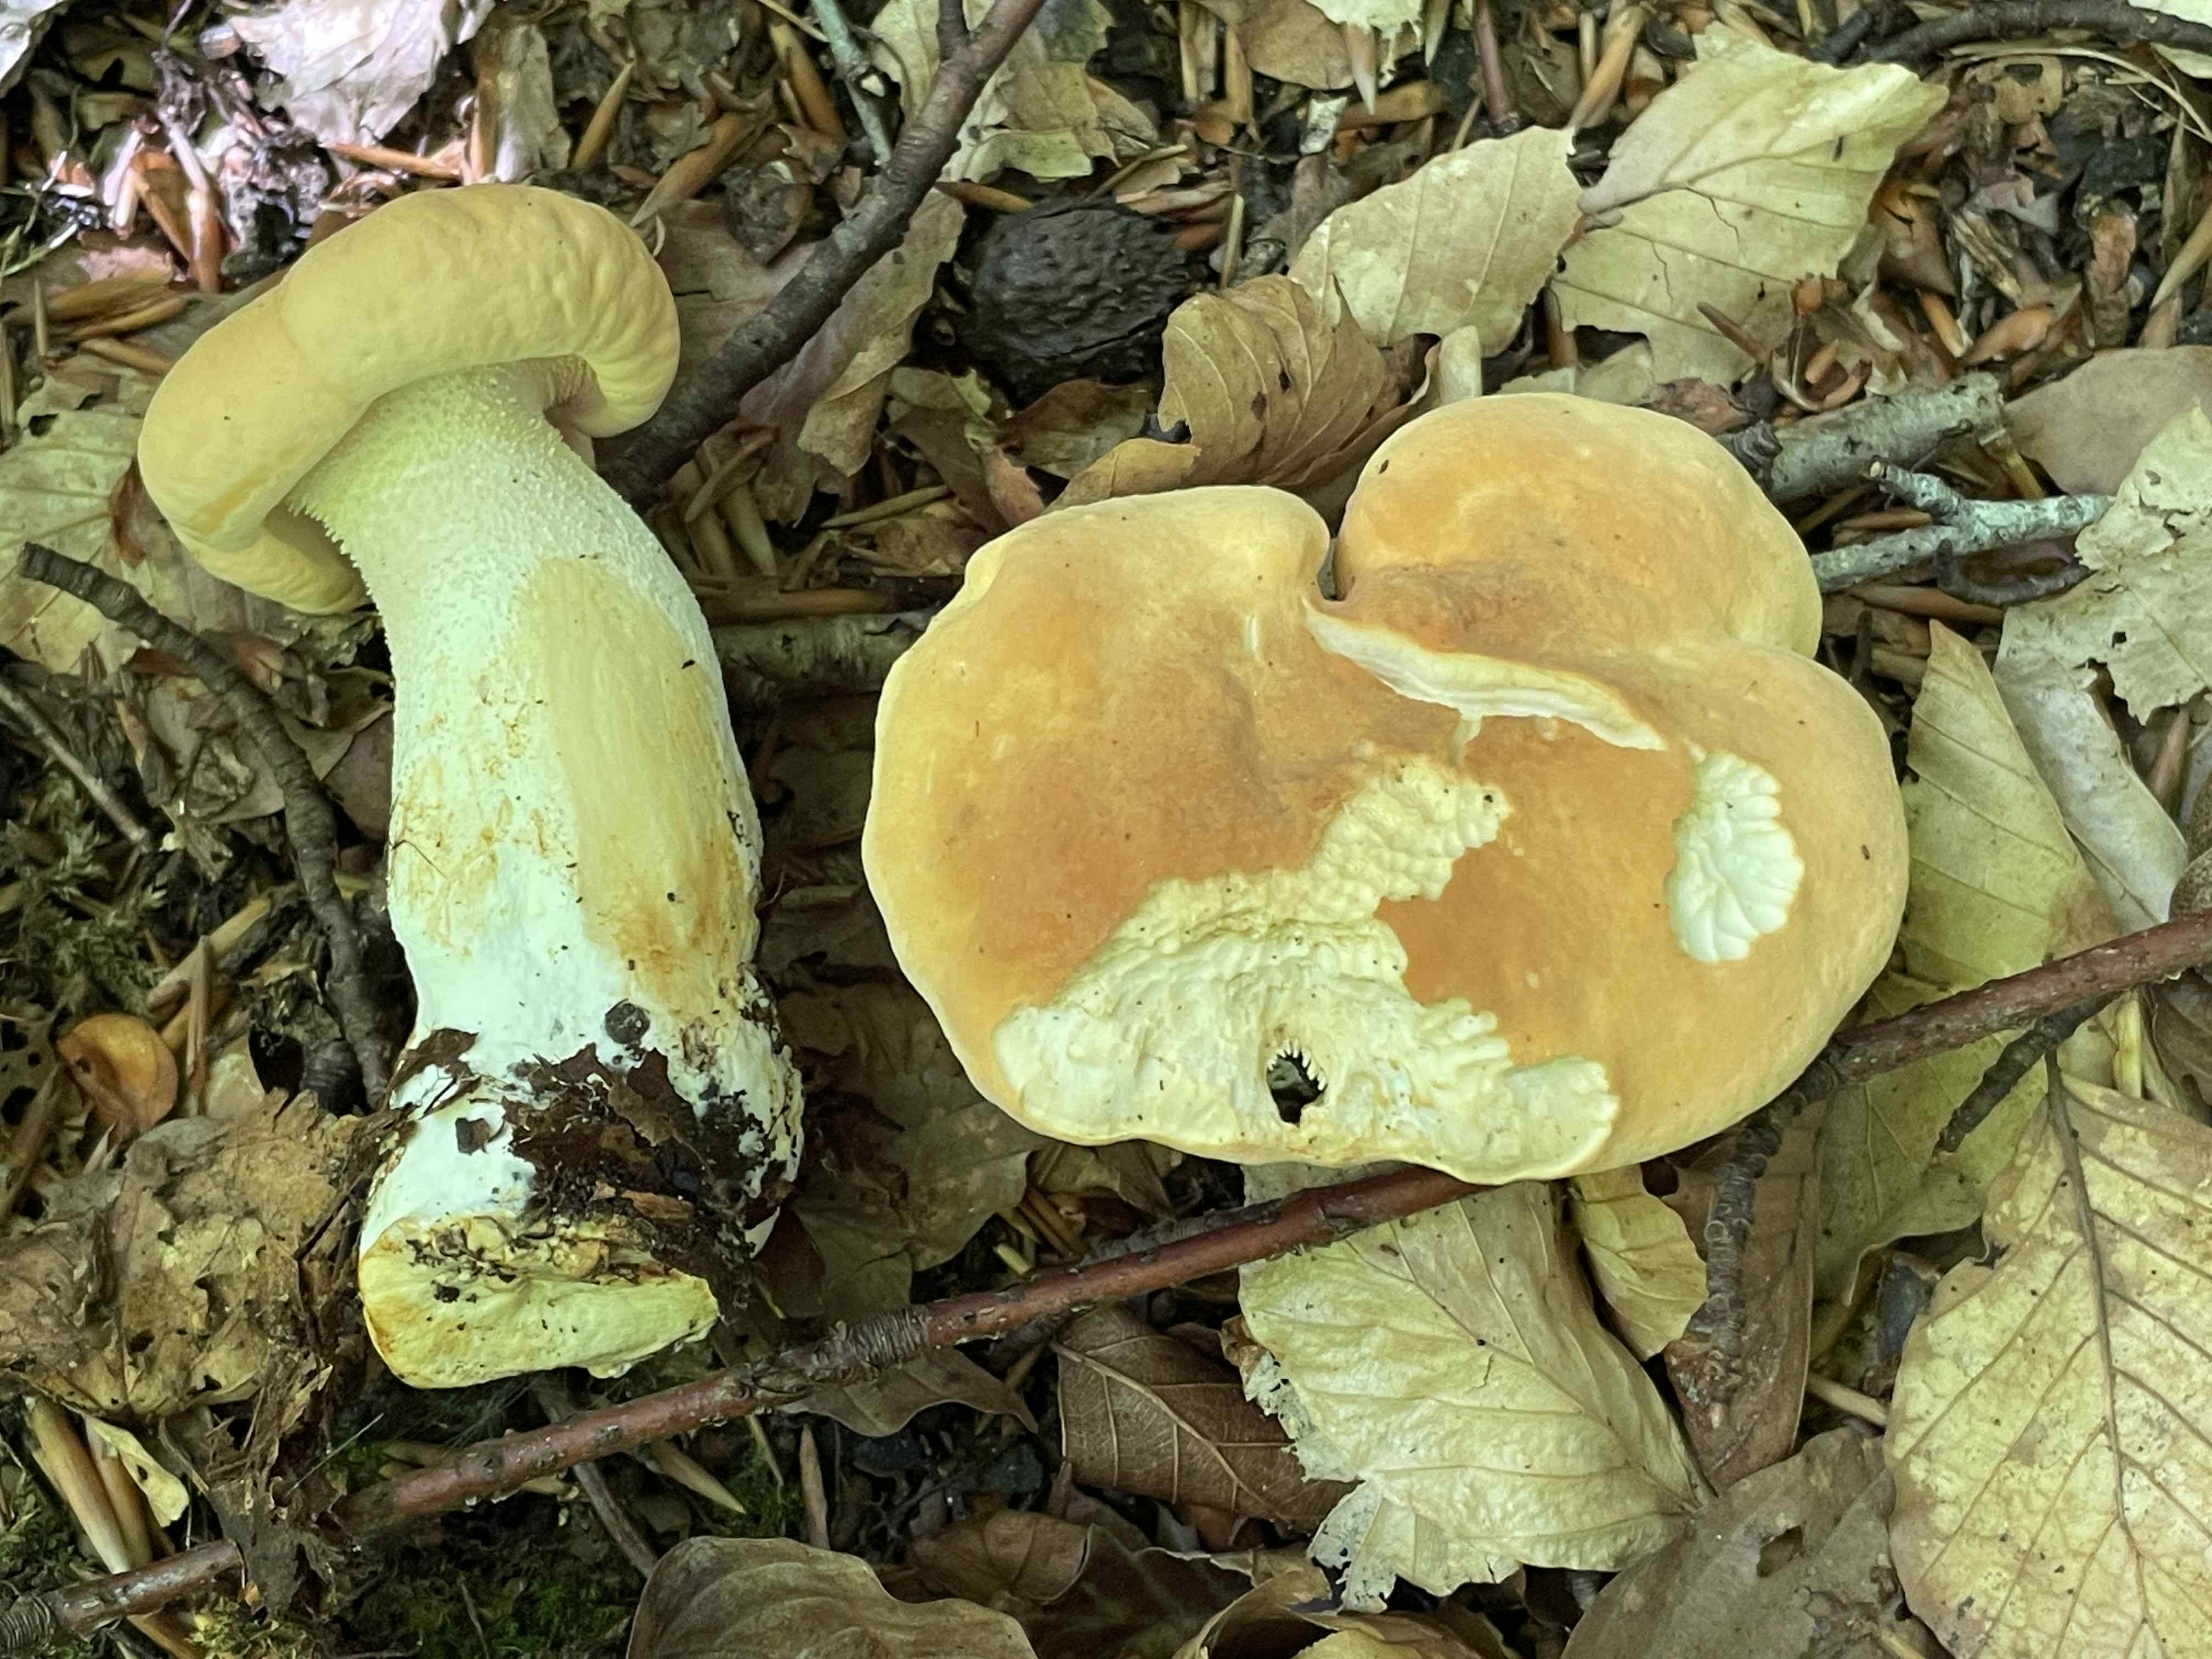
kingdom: Fungi
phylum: Basidiomycota
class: Agaricomycetes
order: Cantharellales
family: Hydnaceae
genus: Hydnum
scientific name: Hydnum
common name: pigsvamp
